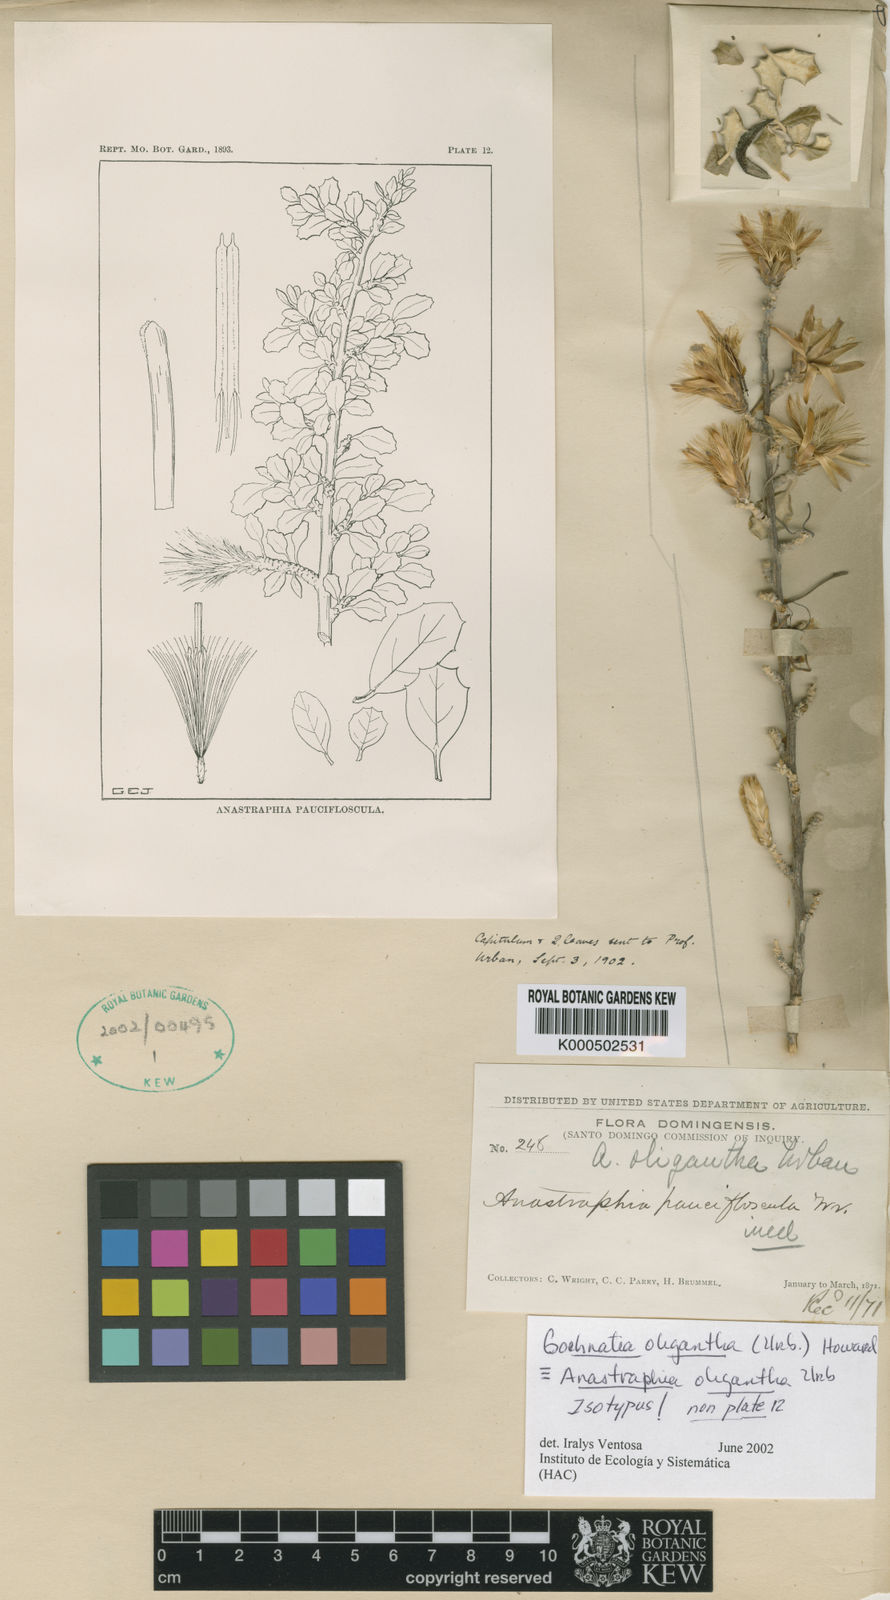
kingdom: Plantae
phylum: Tracheophyta
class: Magnoliopsida
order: Asterales
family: Asteraceae
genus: Anastraphia
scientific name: Anastraphia oligantha
